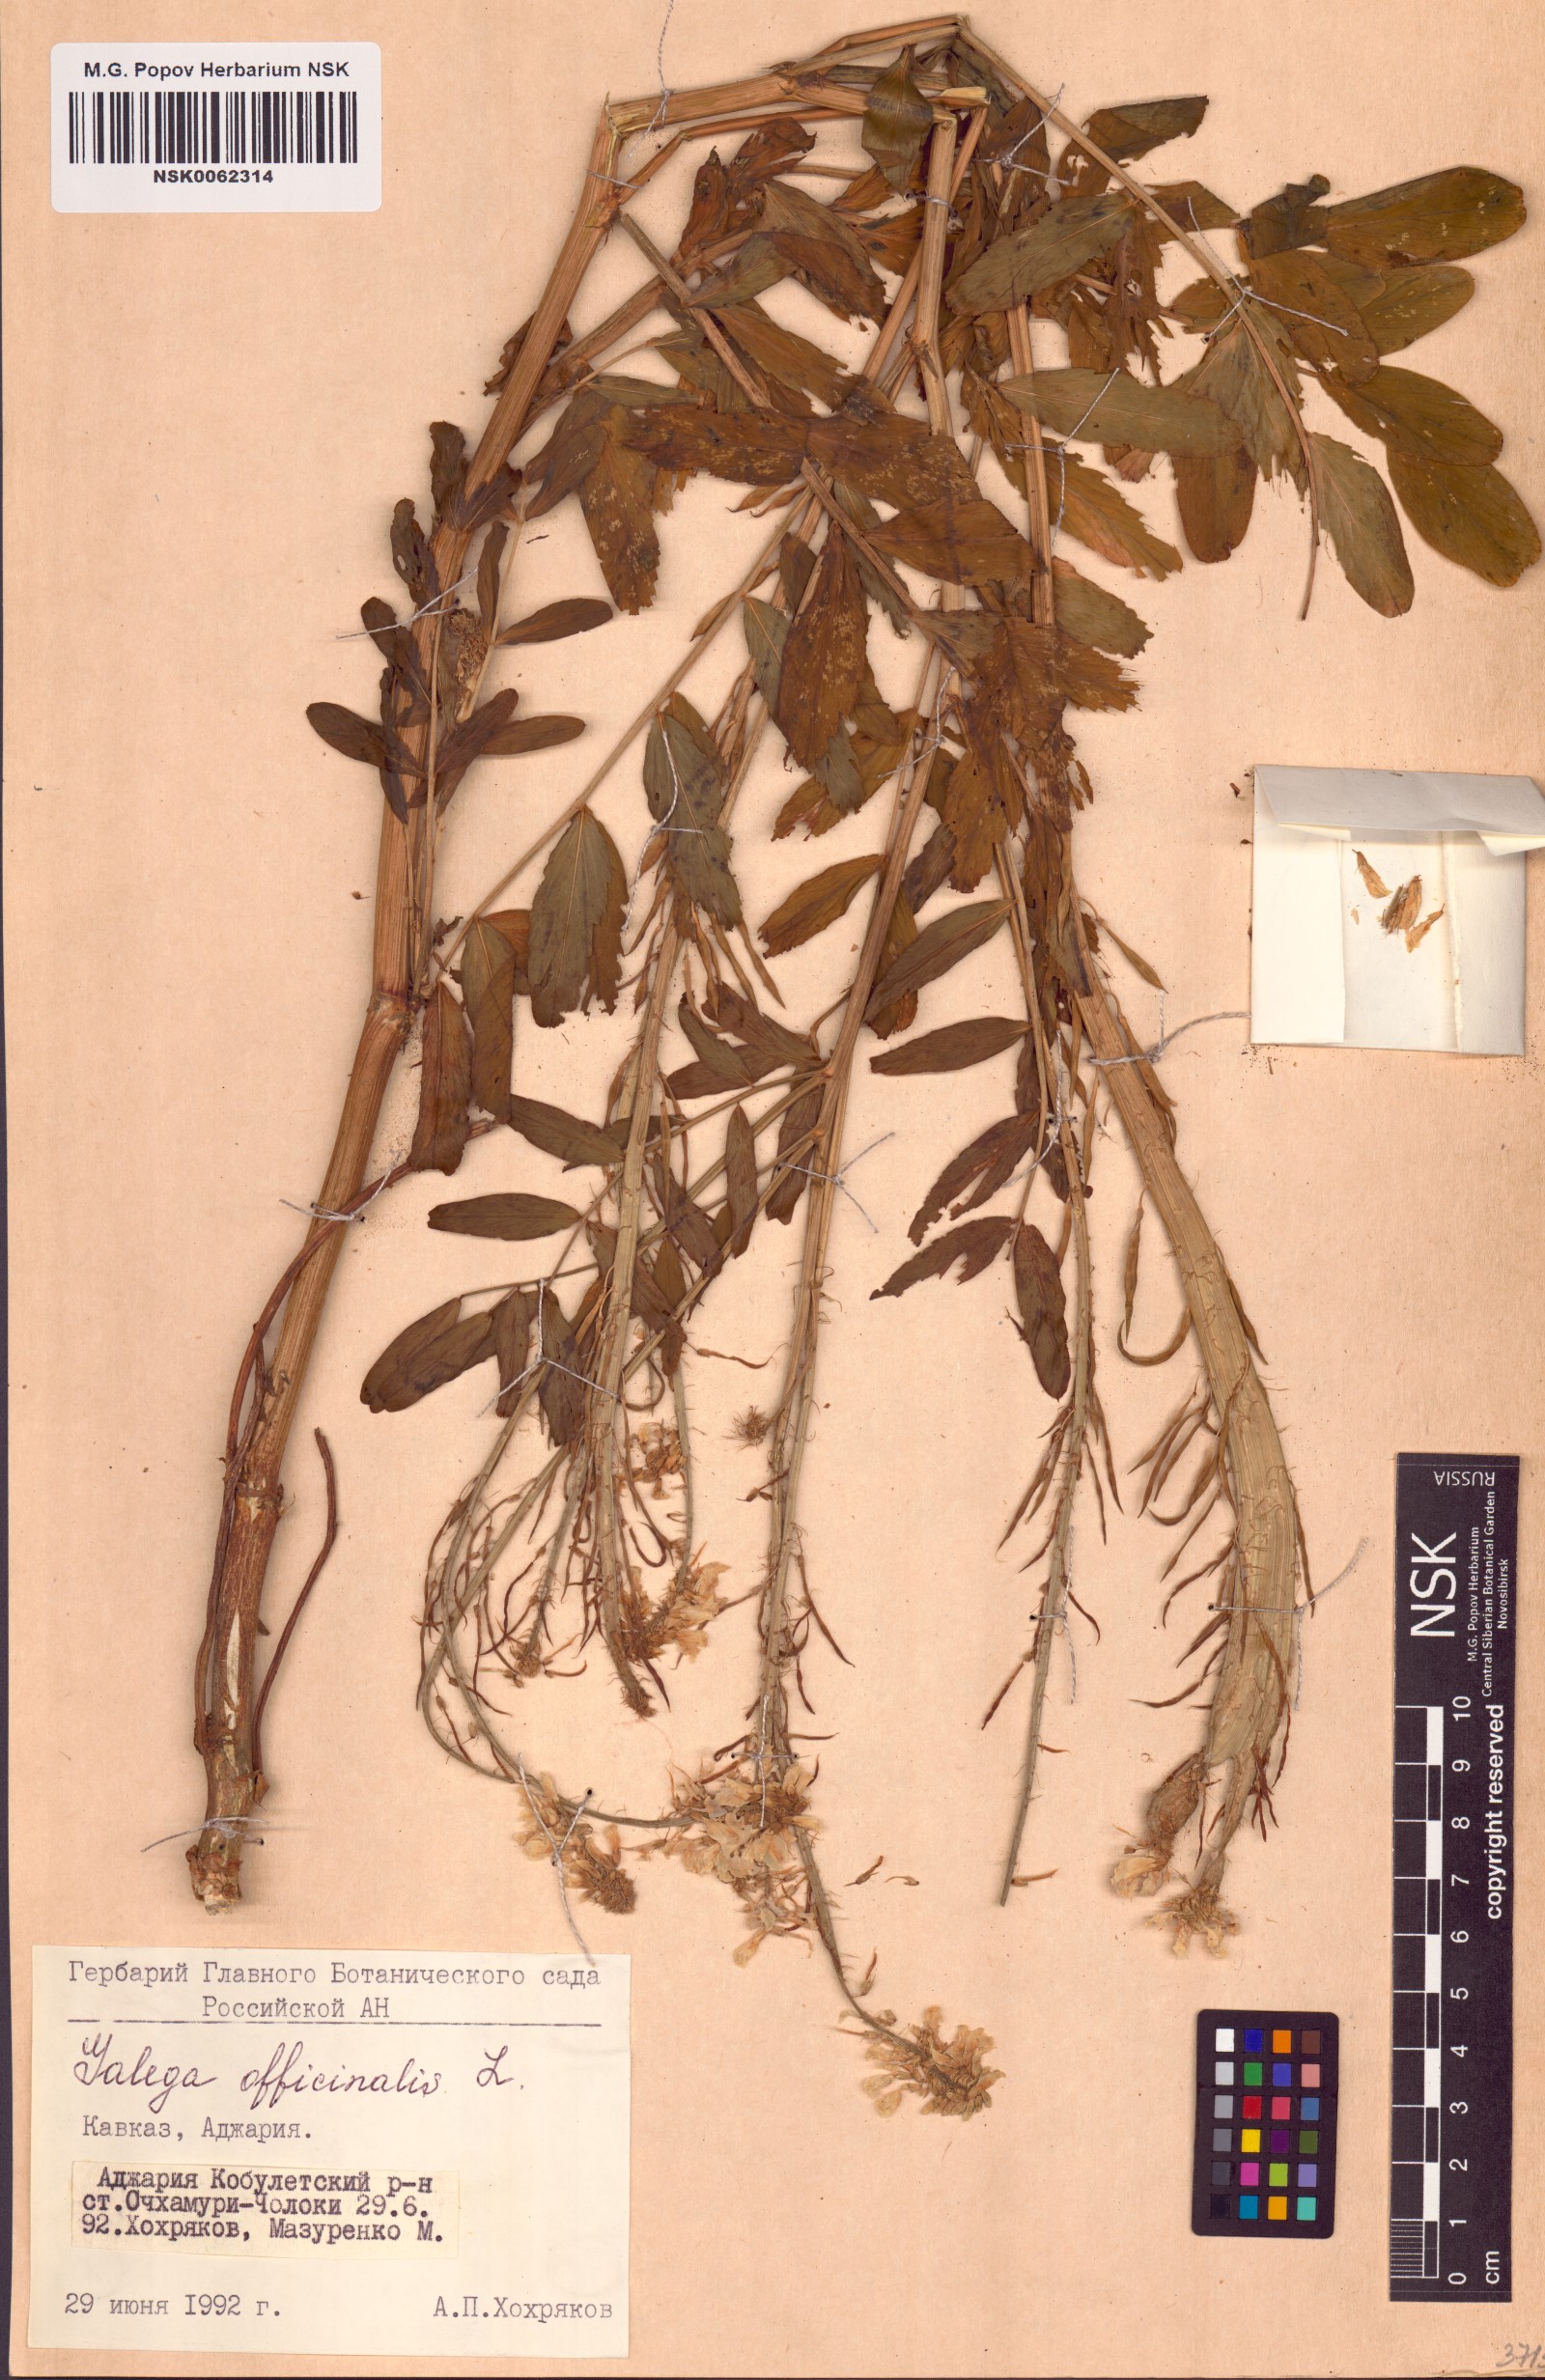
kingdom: Plantae
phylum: Tracheophyta
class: Magnoliopsida
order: Fabales
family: Fabaceae
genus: Galega
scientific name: Galega officinalis
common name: Goat's-rue
